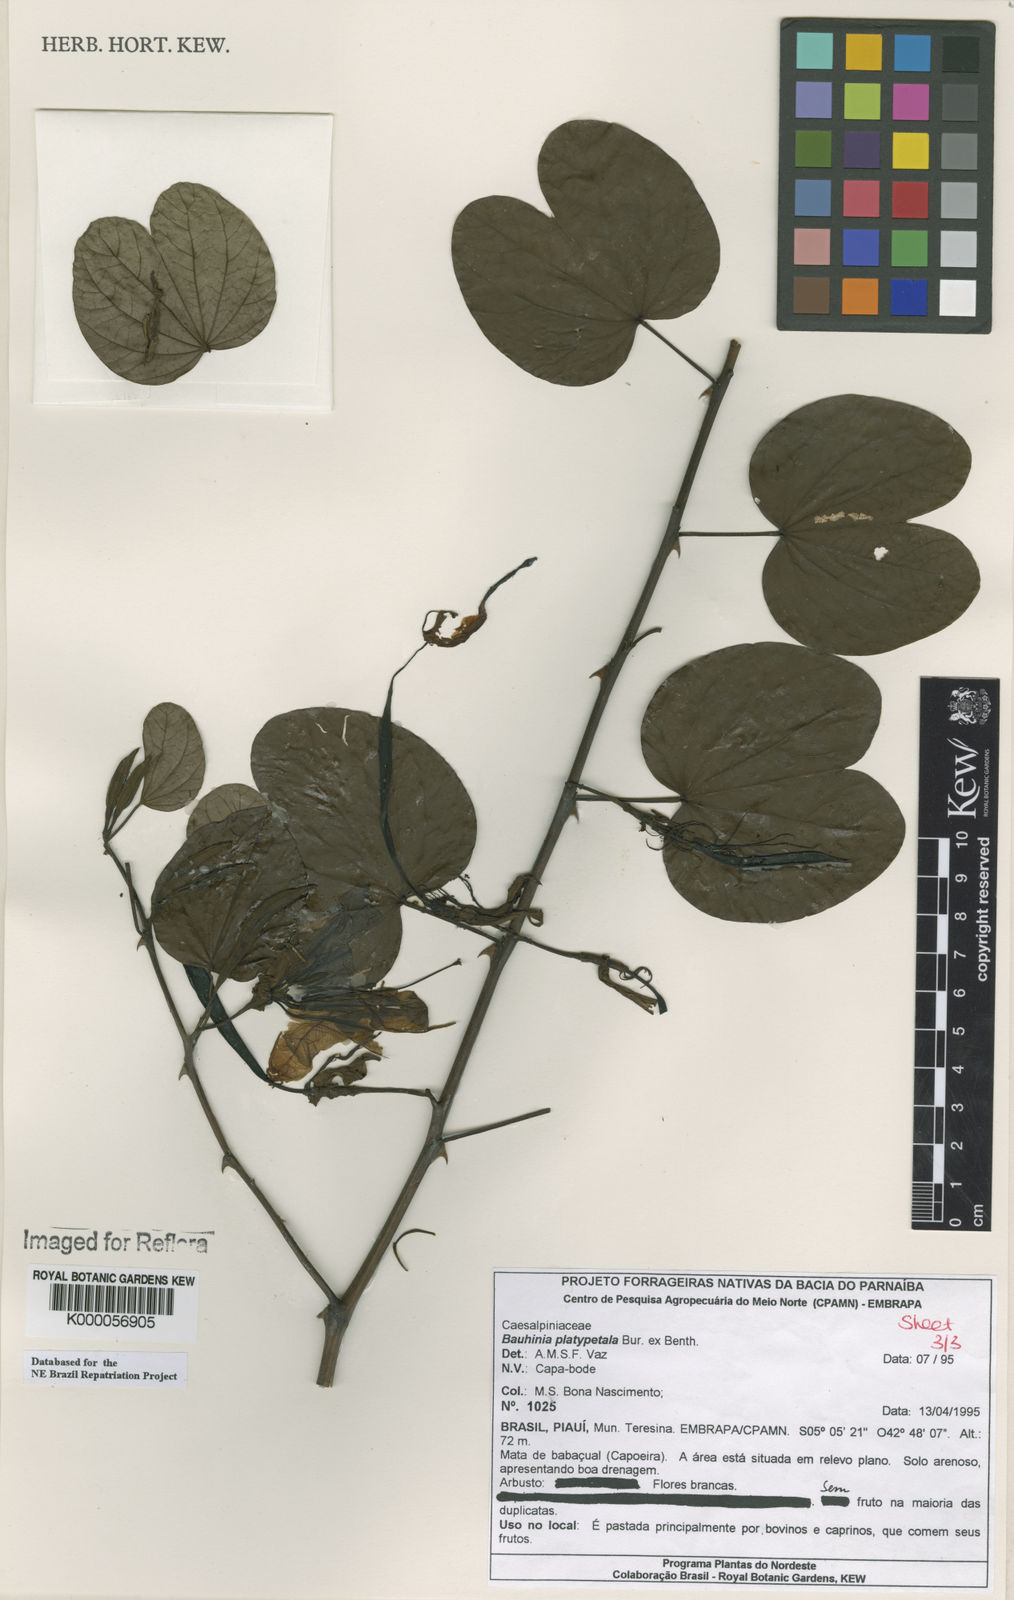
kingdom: Plantae
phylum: Tracheophyta
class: Magnoliopsida
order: Fabales
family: Fabaceae
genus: Bauhinia
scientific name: Bauhinia platypetala
